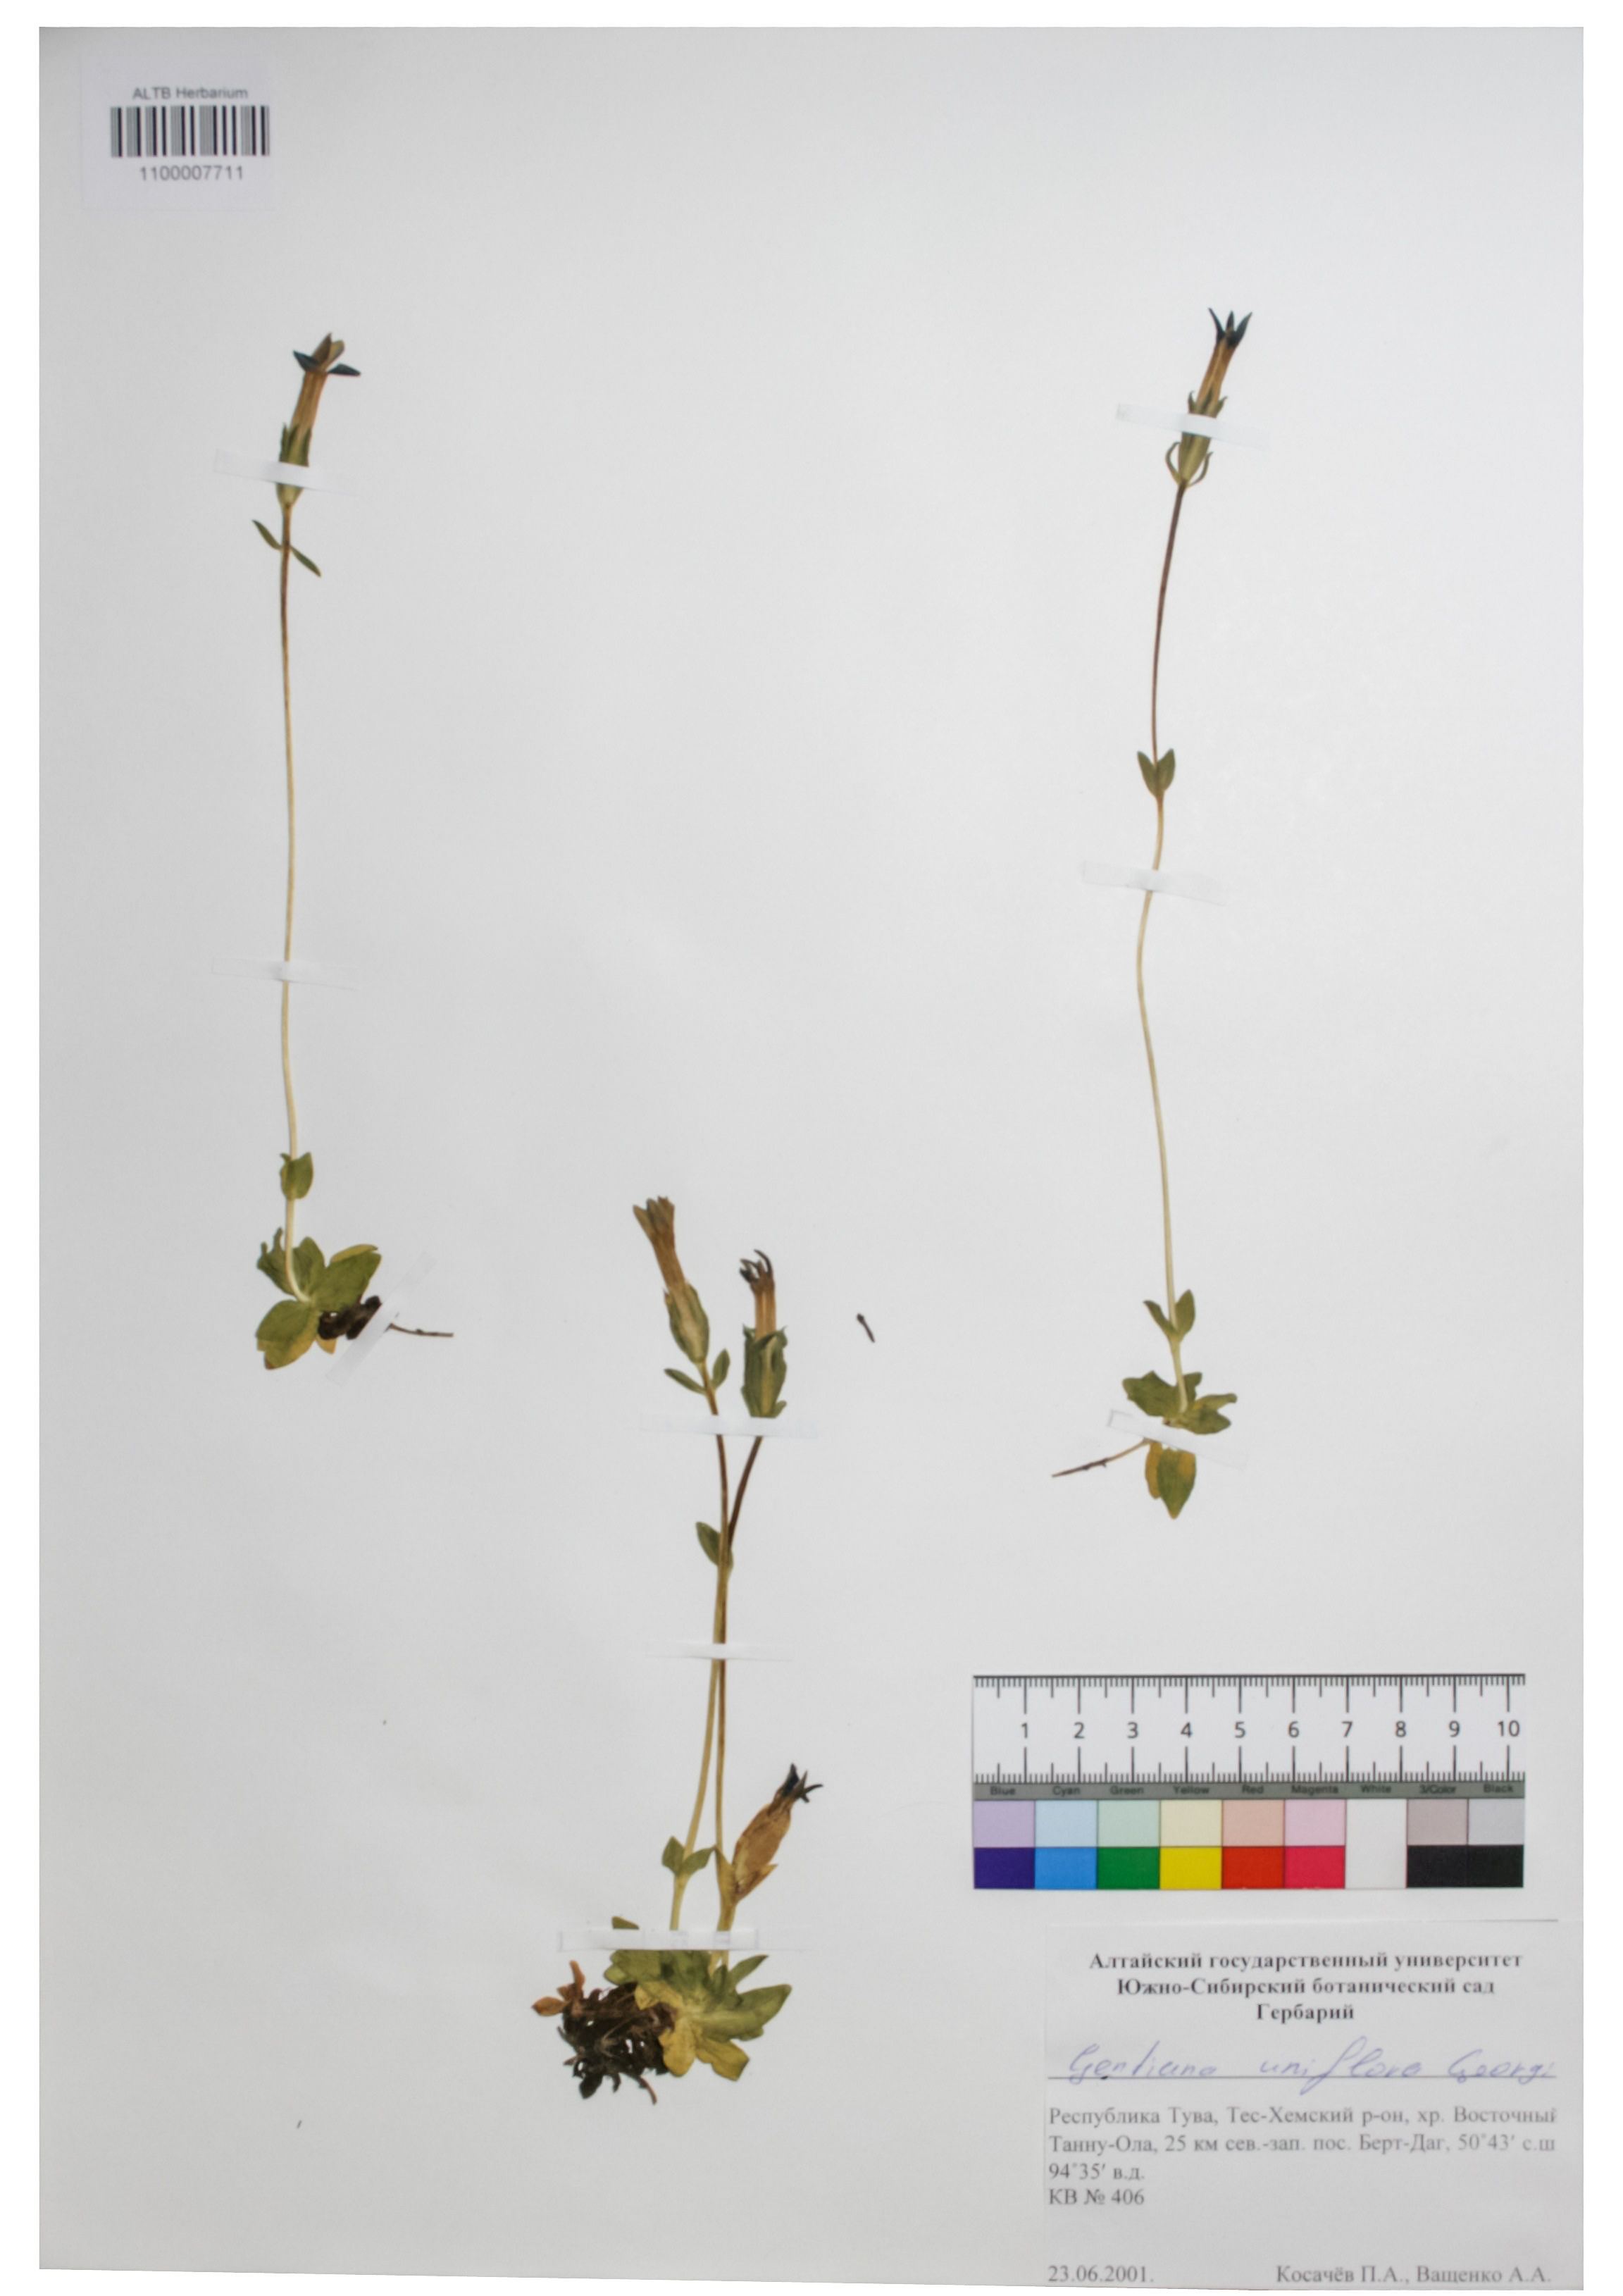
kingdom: Plantae
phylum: Tracheophyta
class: Magnoliopsida
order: Gentianales
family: Gentianaceae
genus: Gentiana
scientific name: Gentiana uniflora
